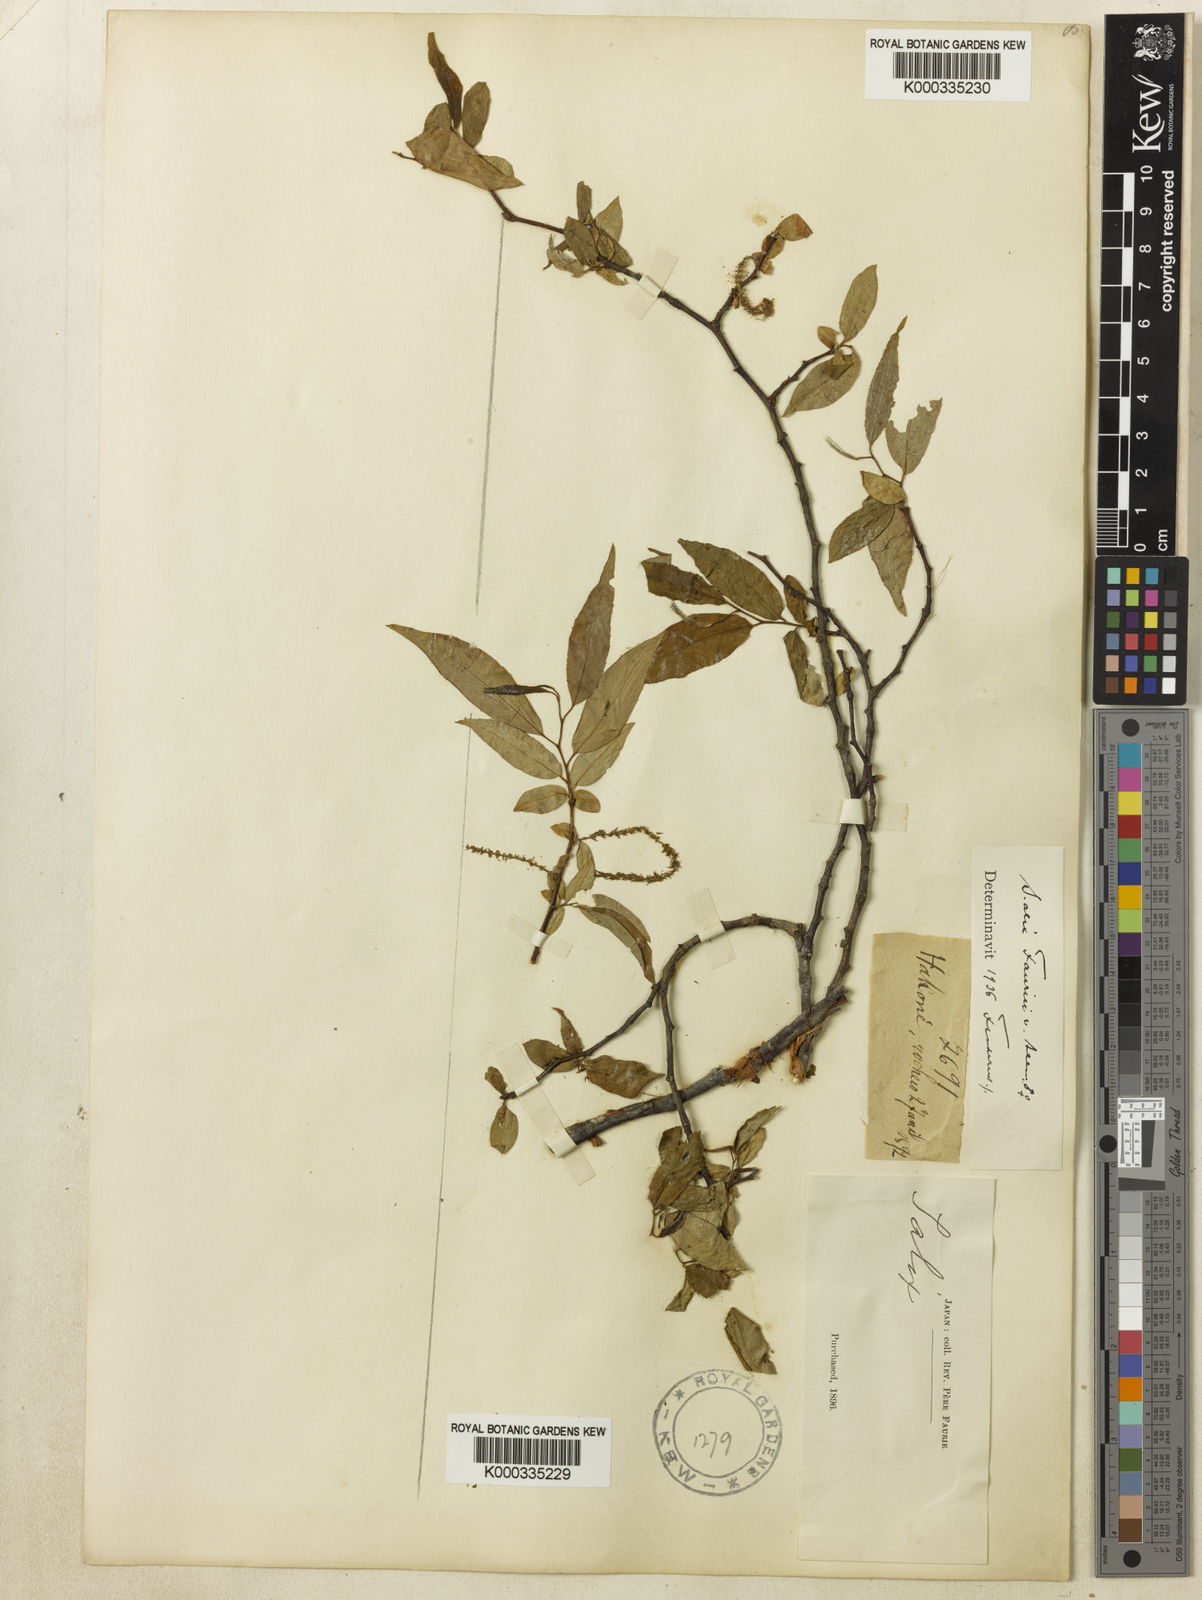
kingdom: Plantae
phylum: Tracheophyta
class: Magnoliopsida
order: Malpighiales
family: Salicaceae
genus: Salix
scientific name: Salix japonica
